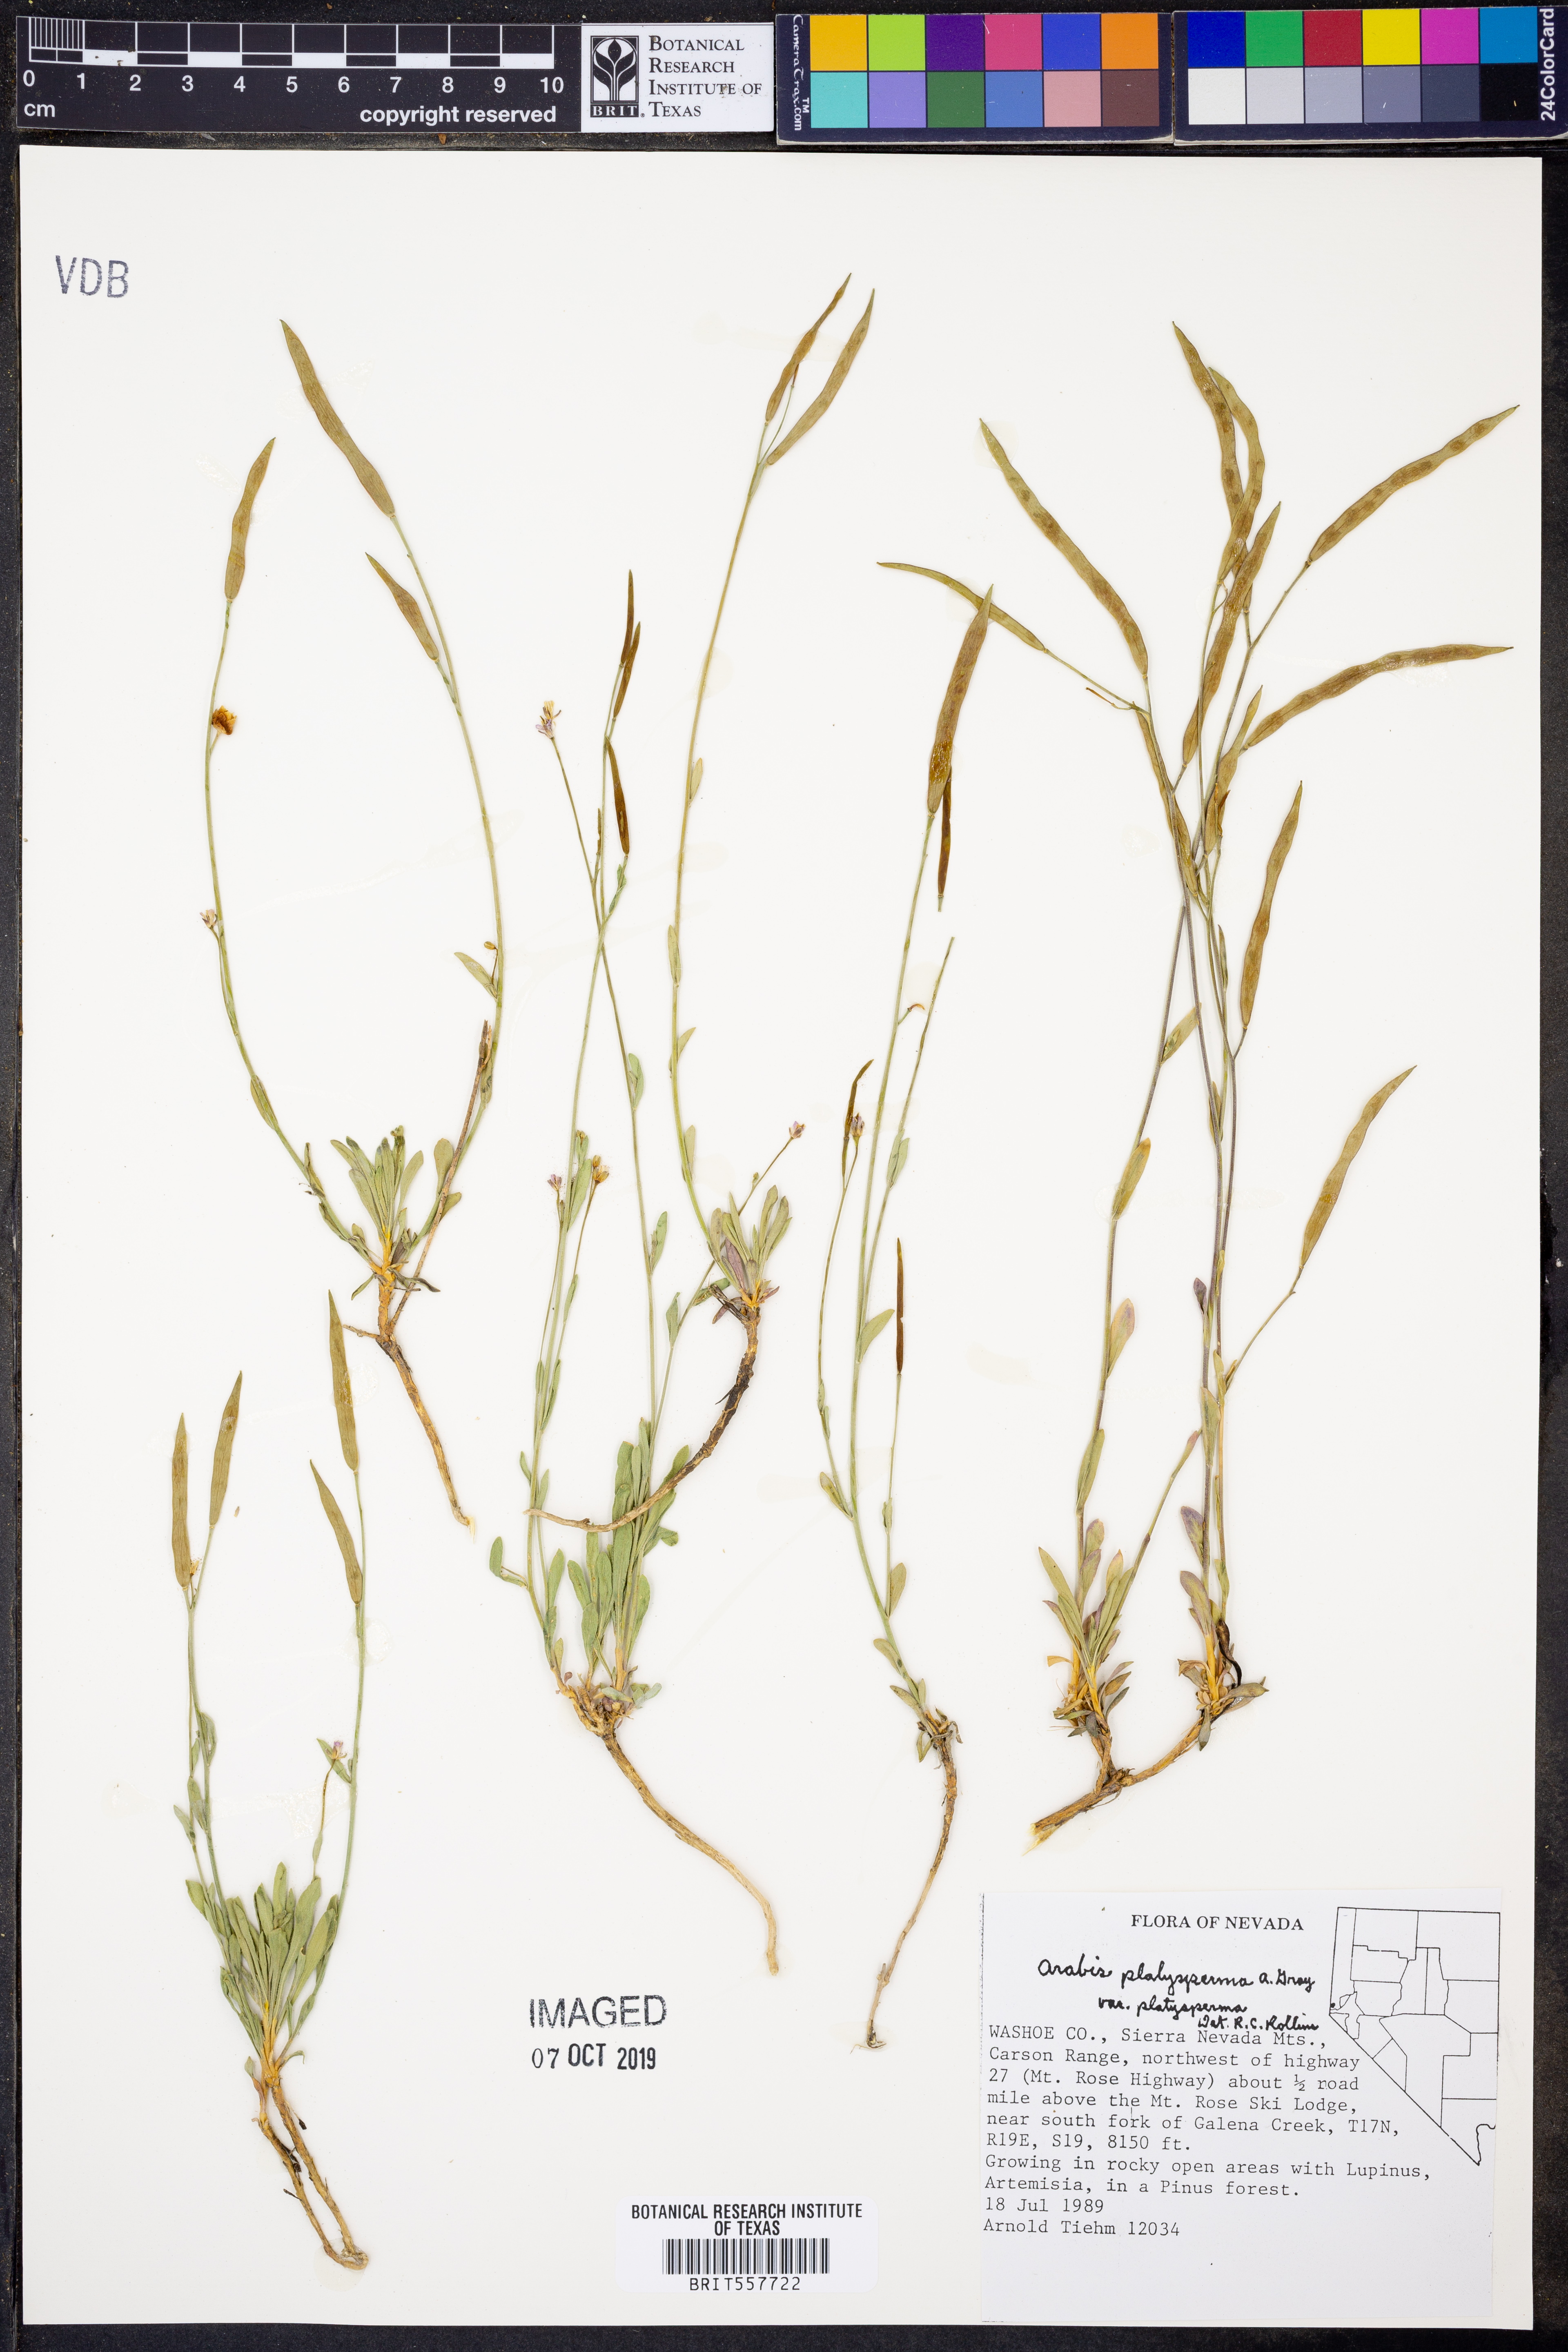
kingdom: Plantae
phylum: Tracheophyta
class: Magnoliopsida
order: Brassicales
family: Brassicaceae
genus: Boechera
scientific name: Boechera platysperma
